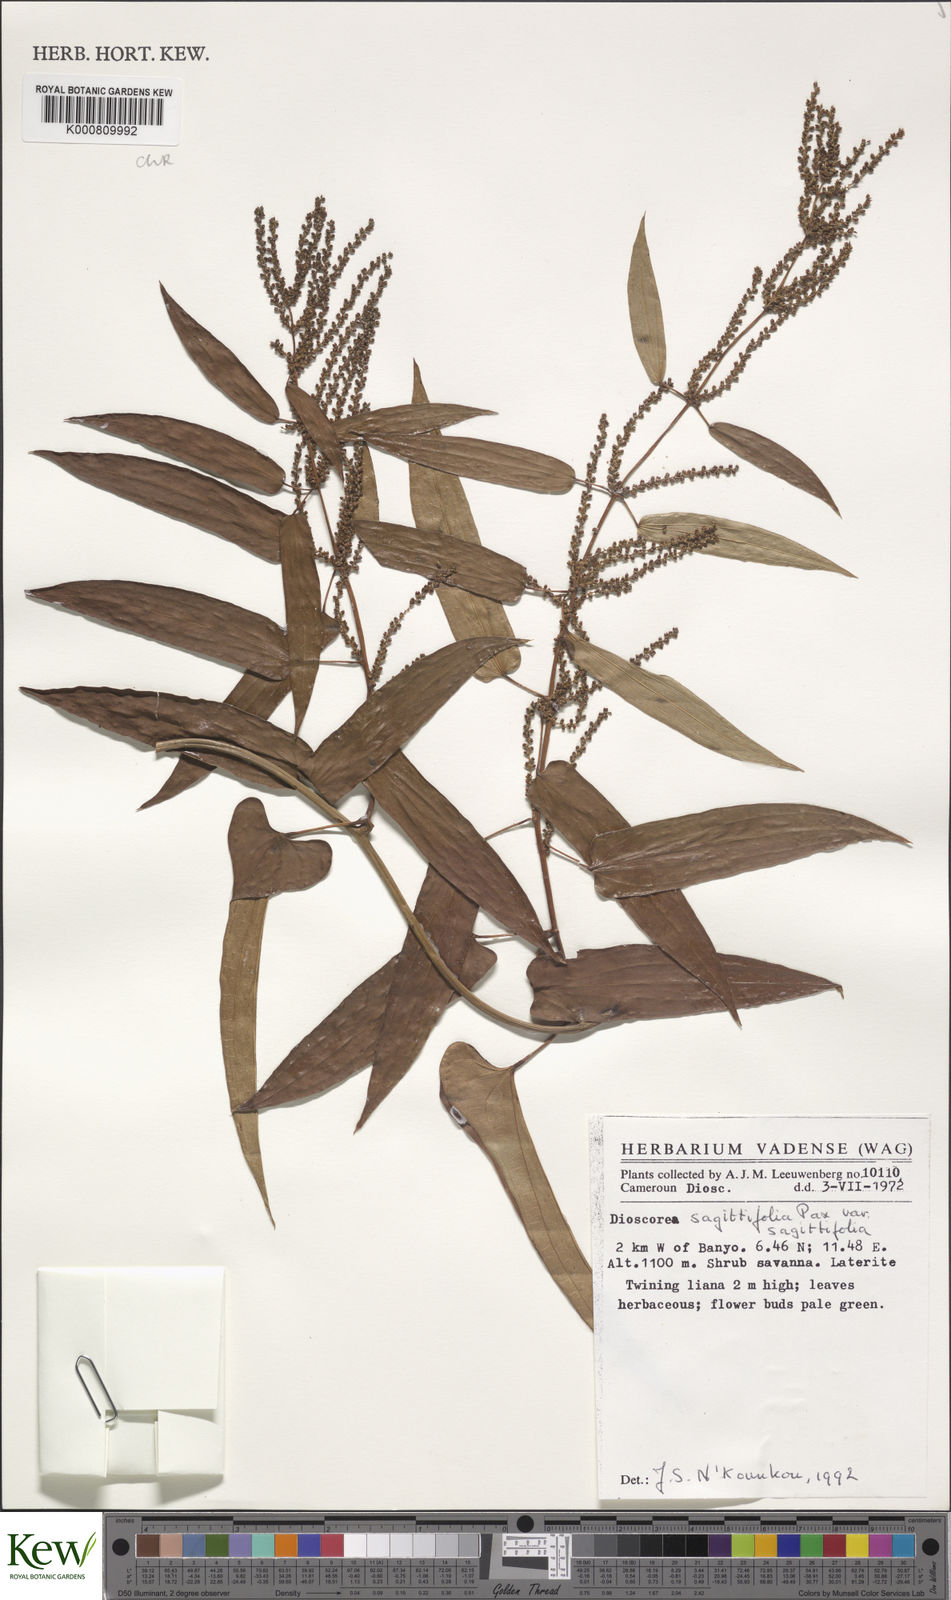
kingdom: Plantae
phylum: Tracheophyta
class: Liliopsida
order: Dioscoreales
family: Dioscoreaceae
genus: Dioscorea
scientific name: Dioscorea sagittifolia
